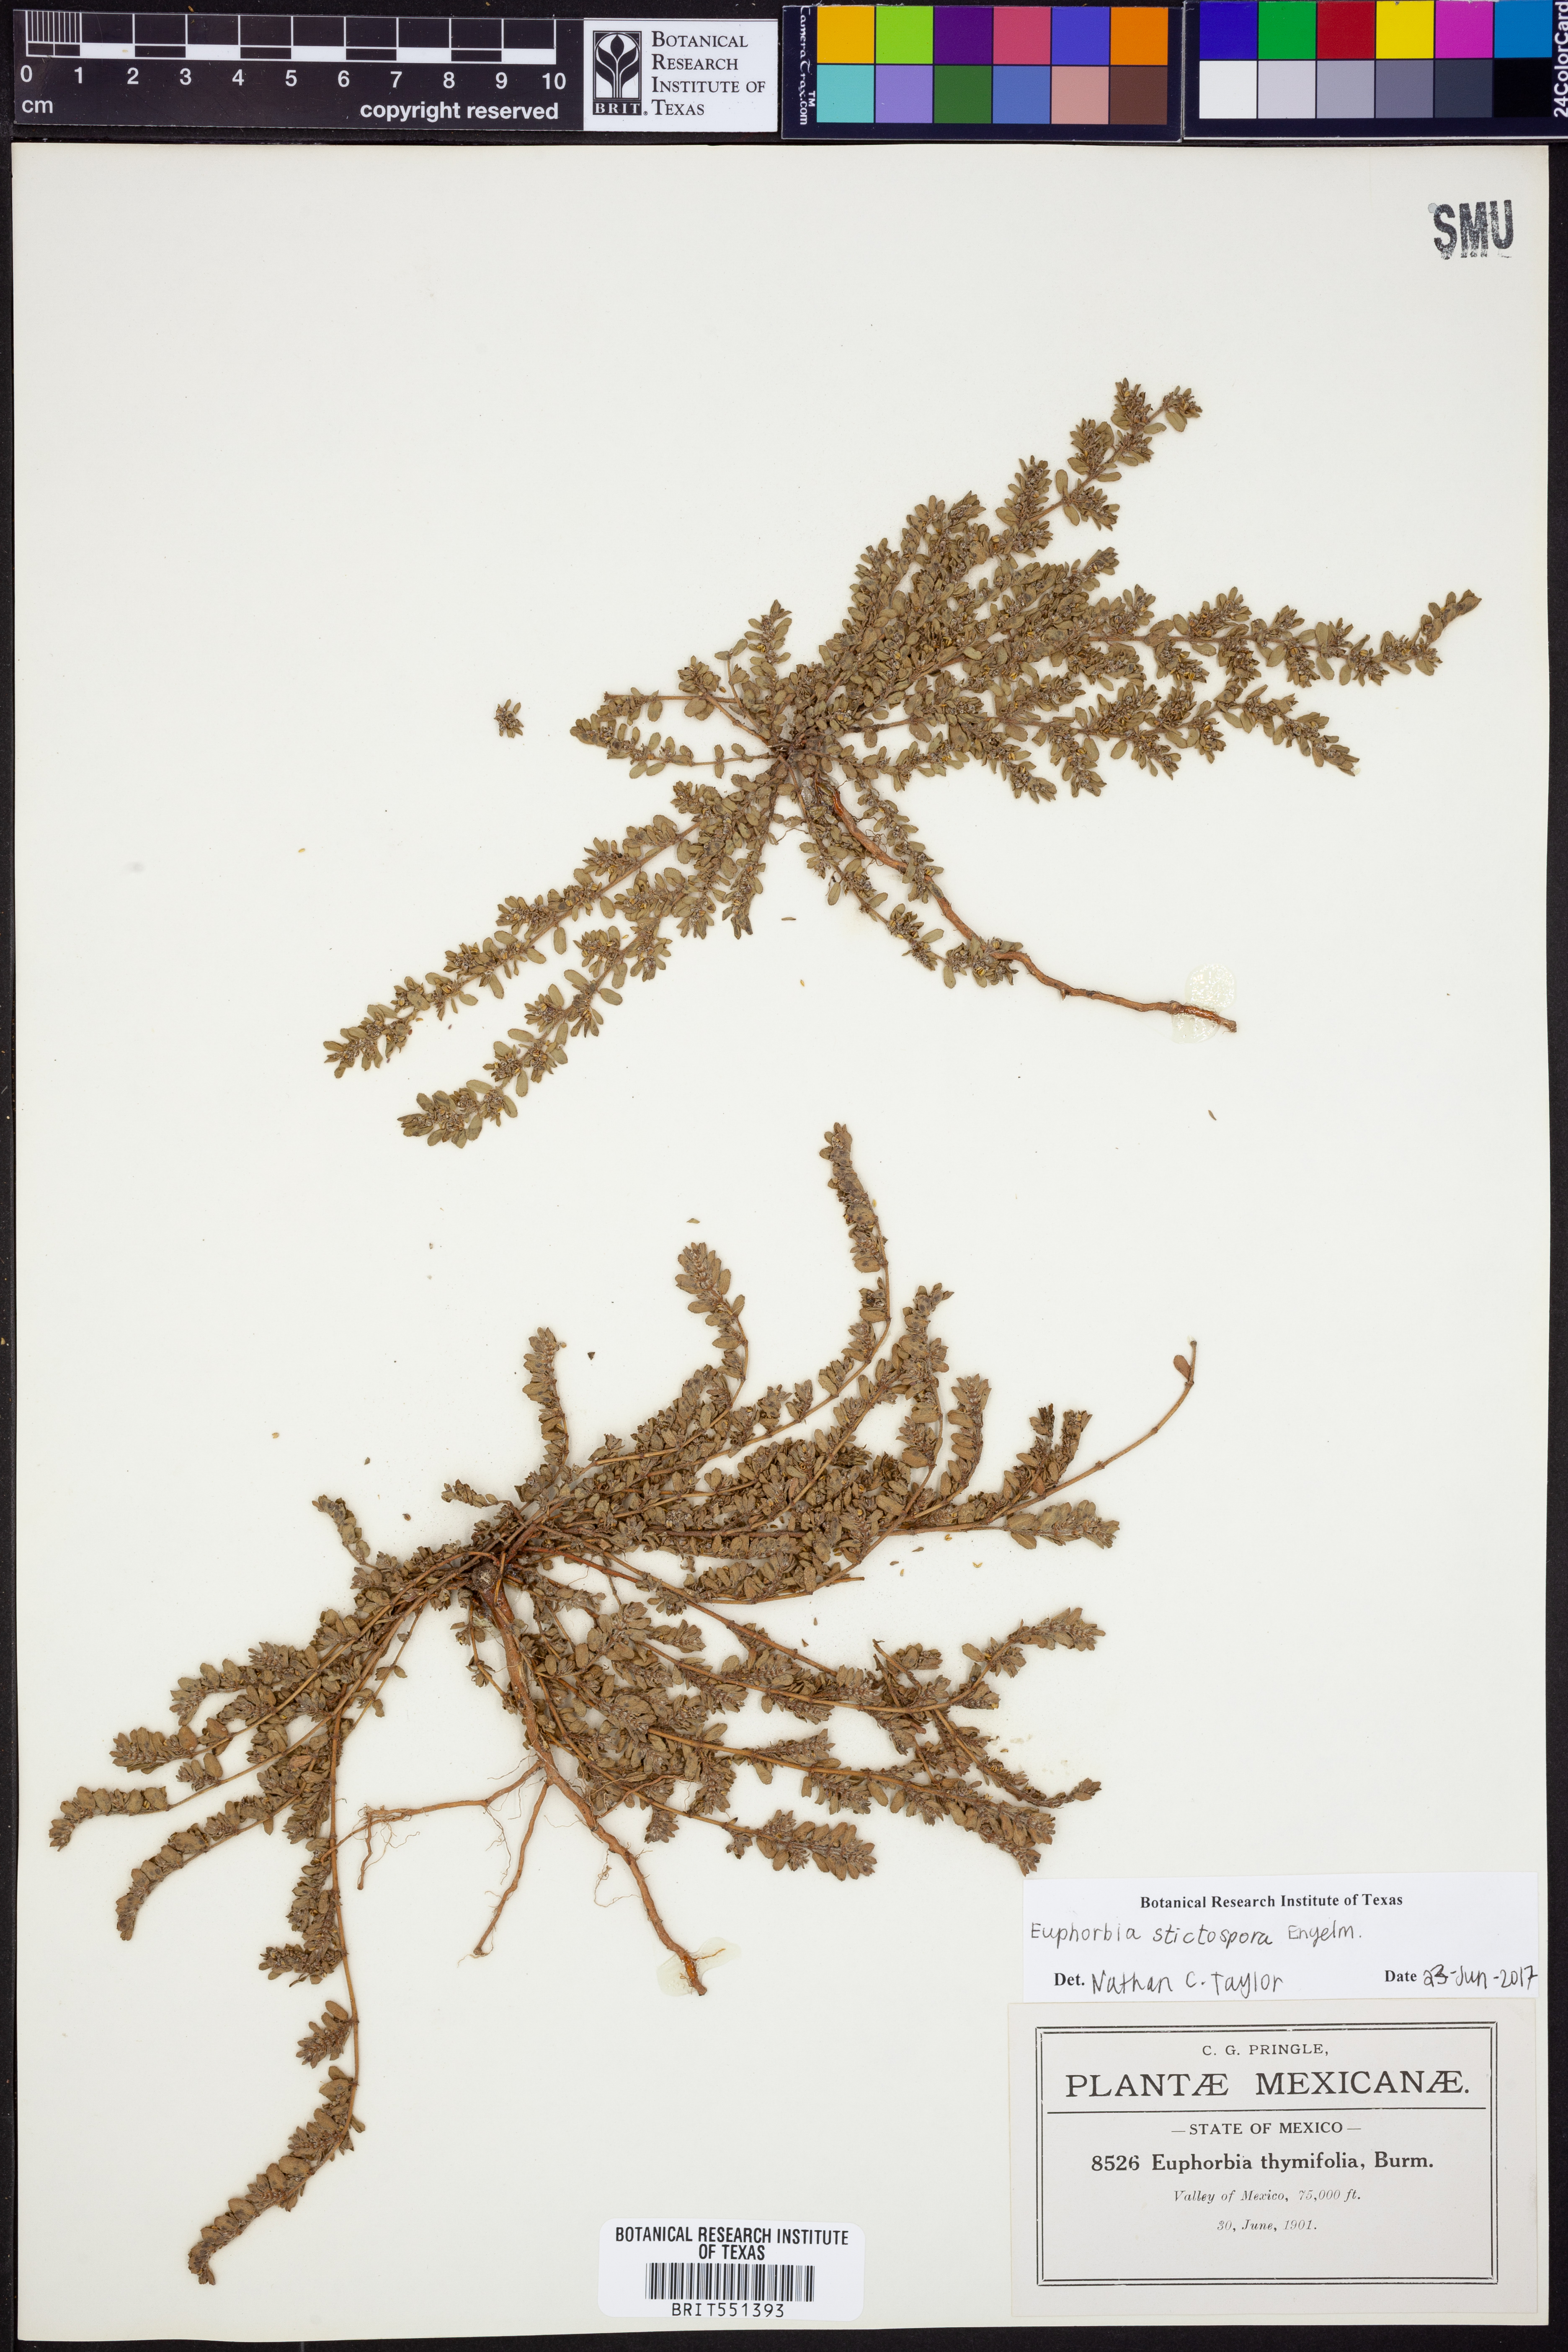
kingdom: Plantae
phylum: Tracheophyta
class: Magnoliopsida
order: Malpighiales
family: Euphorbiaceae
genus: Euphorbia
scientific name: Euphorbia stictospora
